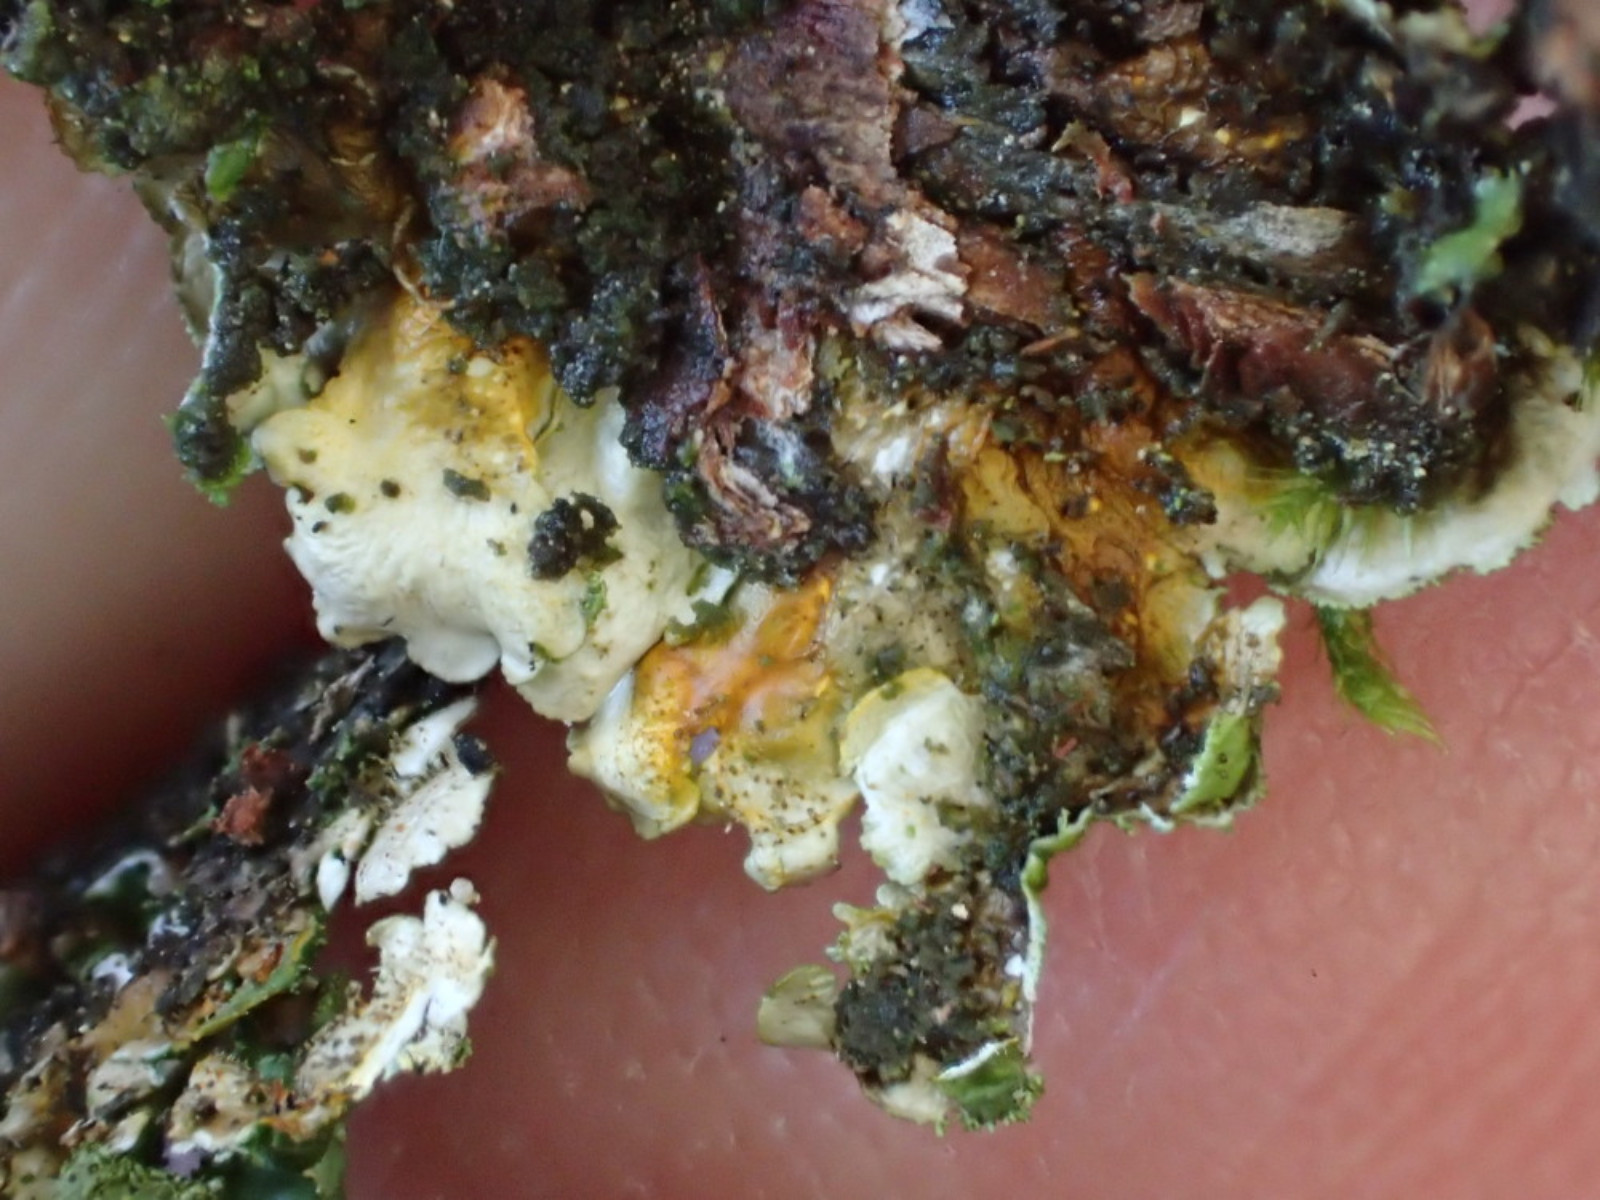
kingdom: Fungi
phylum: Ascomycota
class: Lecanoromycetes
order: Lecanorales
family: Parmeliaceae
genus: Melanelixia
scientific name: Melanelixia glabratula
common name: glinsende skållav
